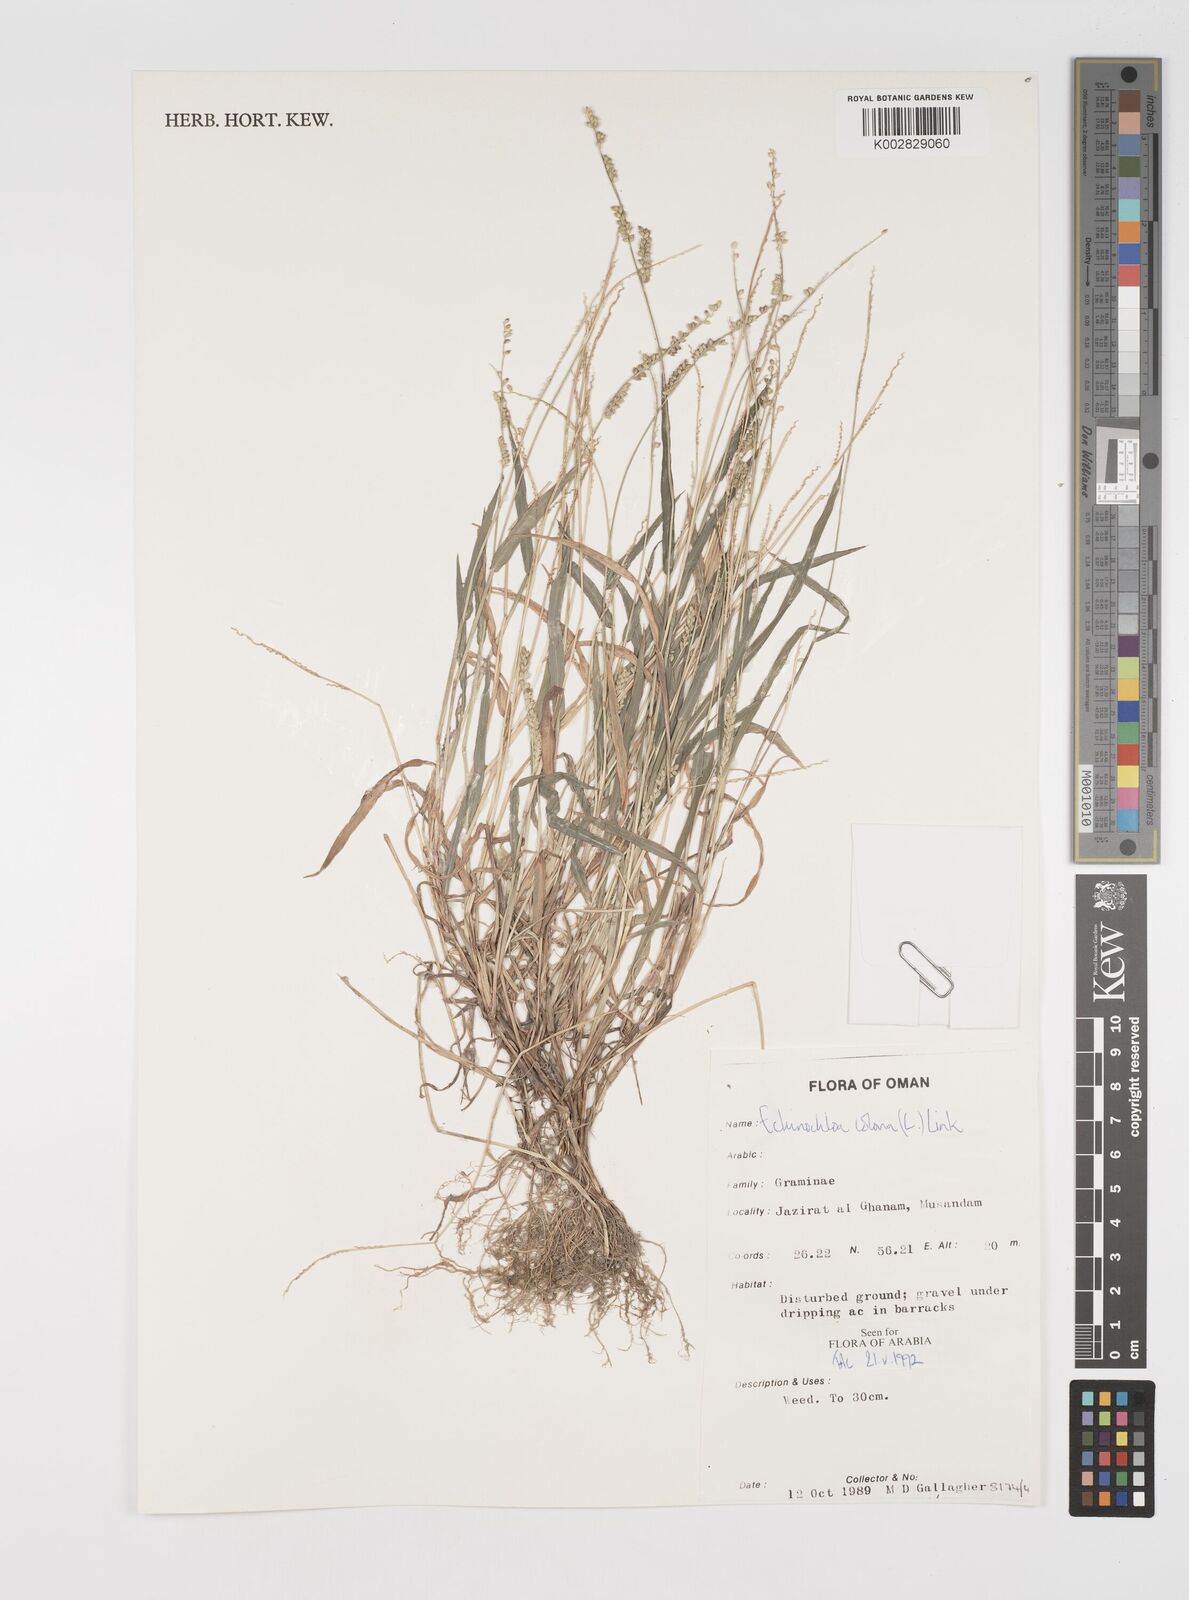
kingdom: Plantae
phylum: Tracheophyta
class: Liliopsida
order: Poales
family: Poaceae
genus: Echinochloa
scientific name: Echinochloa colonum
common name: Jungle rice
